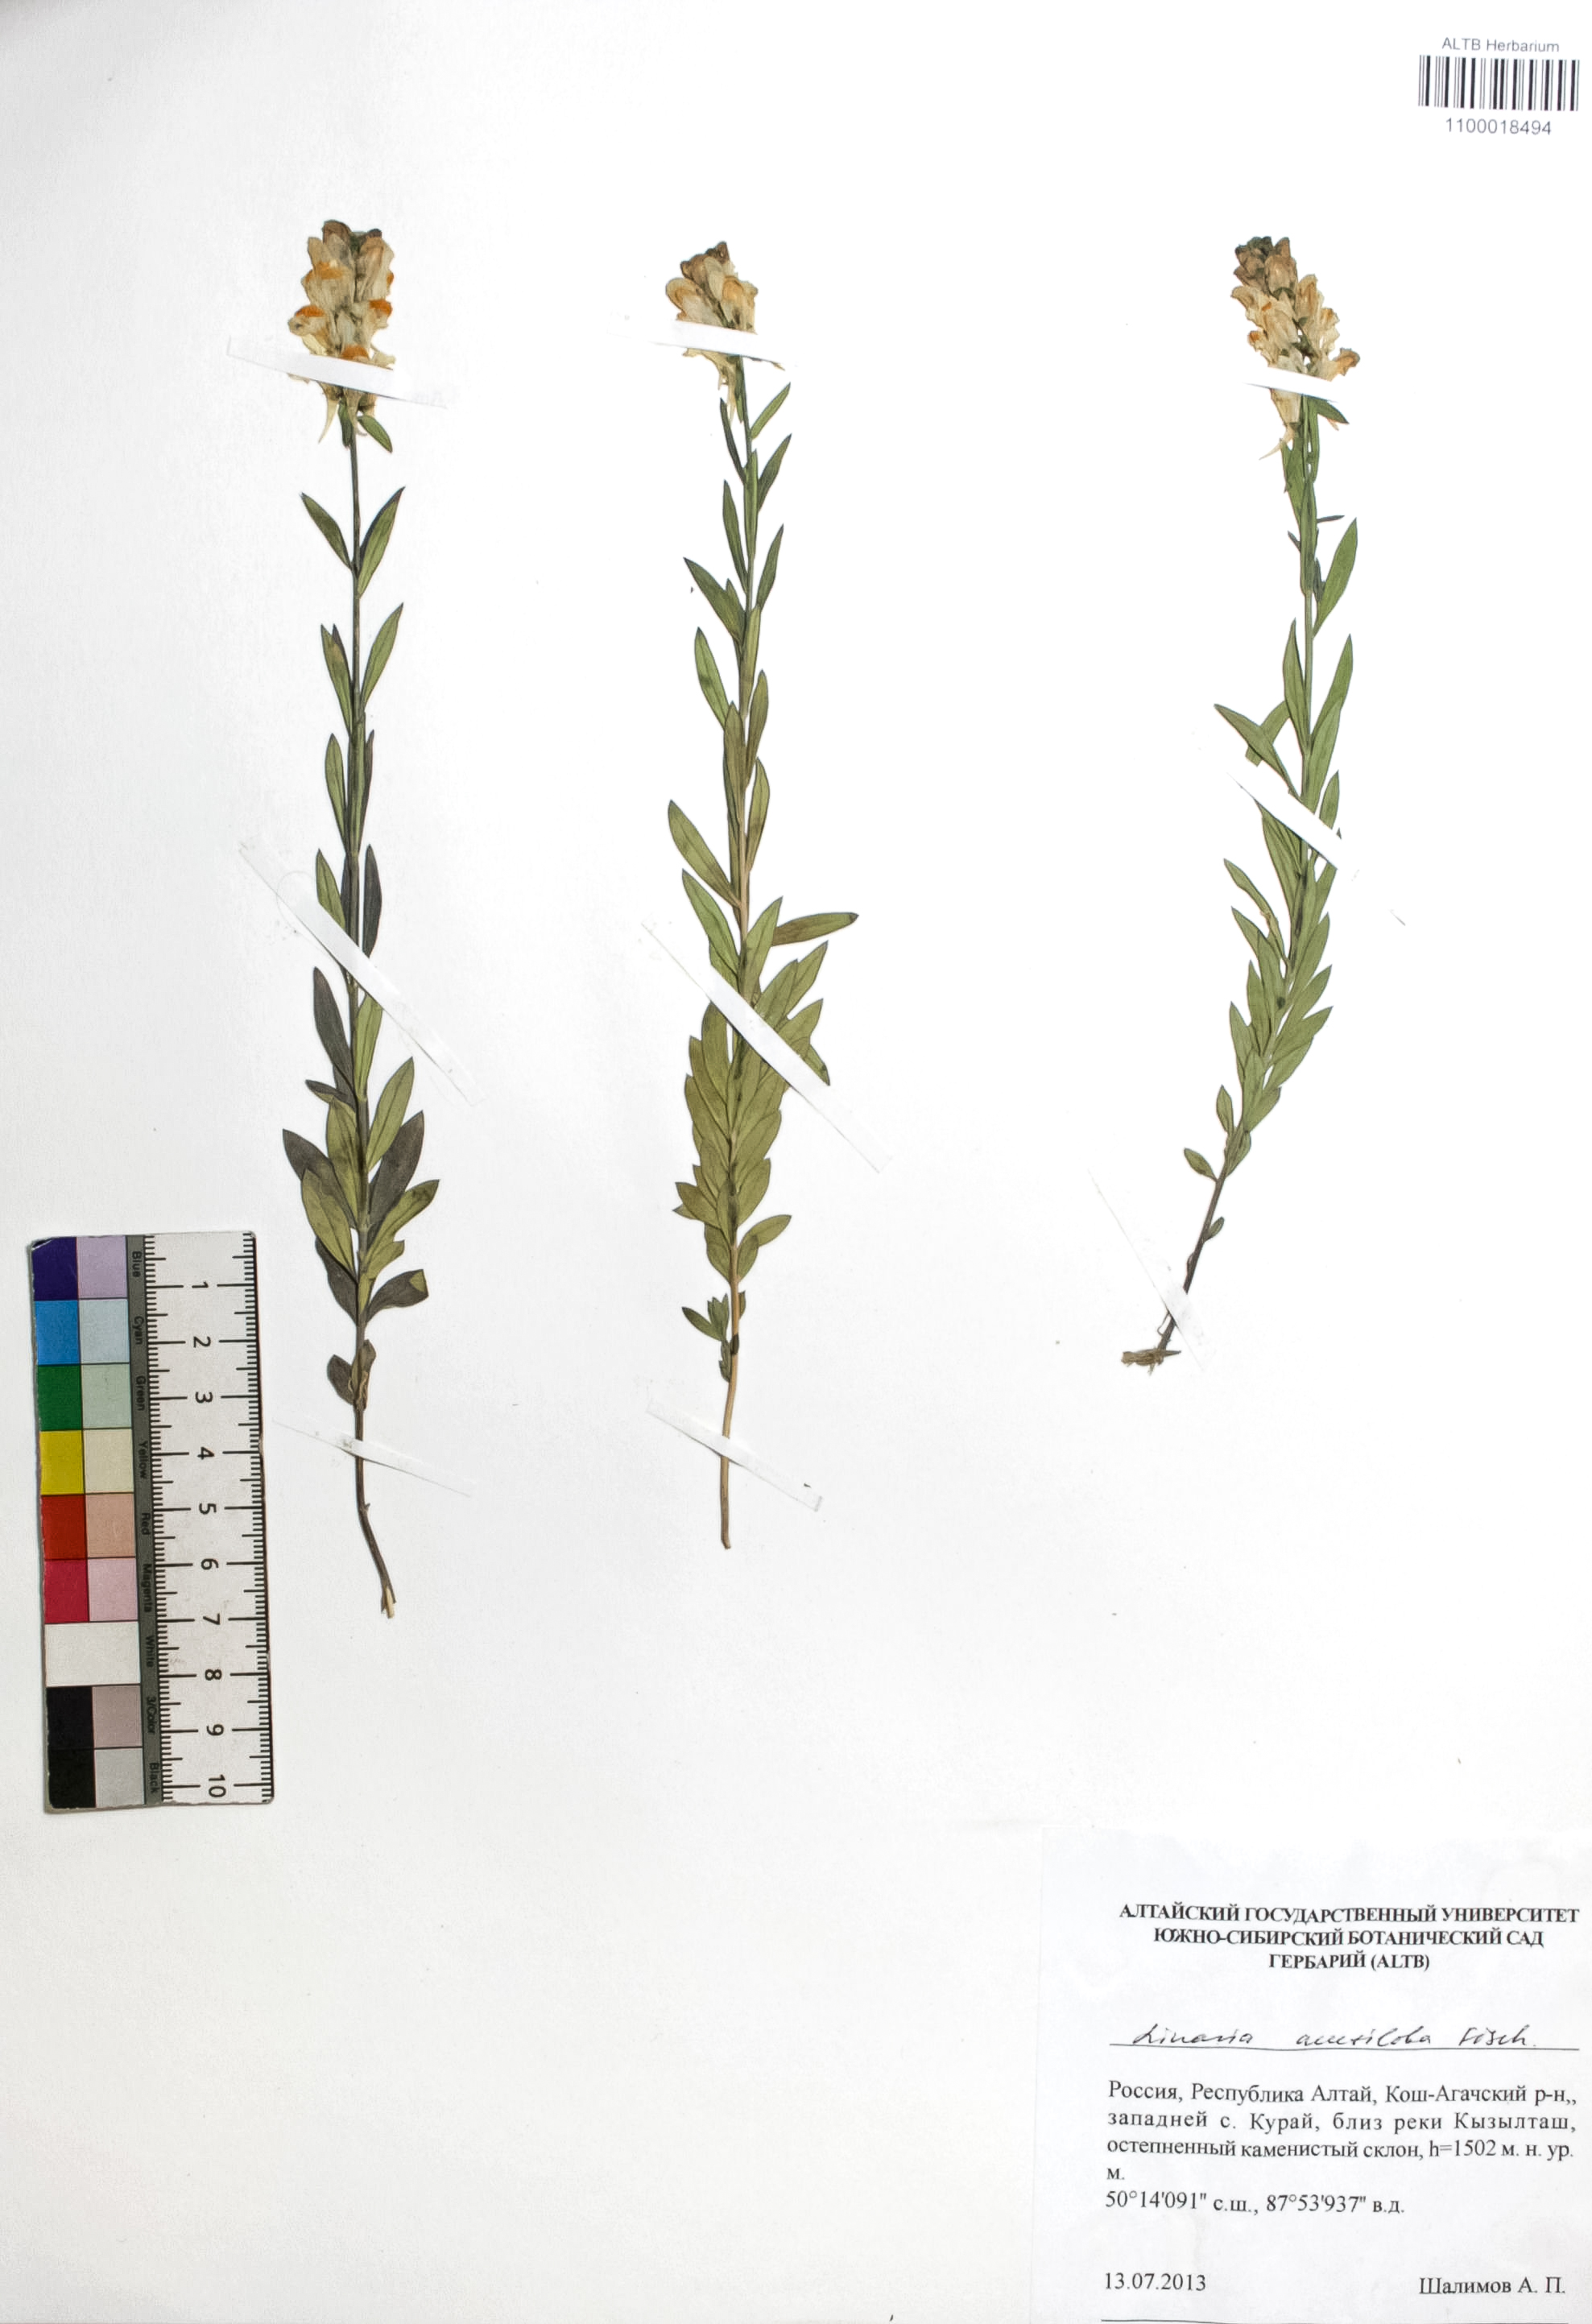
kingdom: Plantae
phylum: Tracheophyta
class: Magnoliopsida
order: Lamiales
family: Plantaginaceae
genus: Linaria
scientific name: Linaria acutiloba
